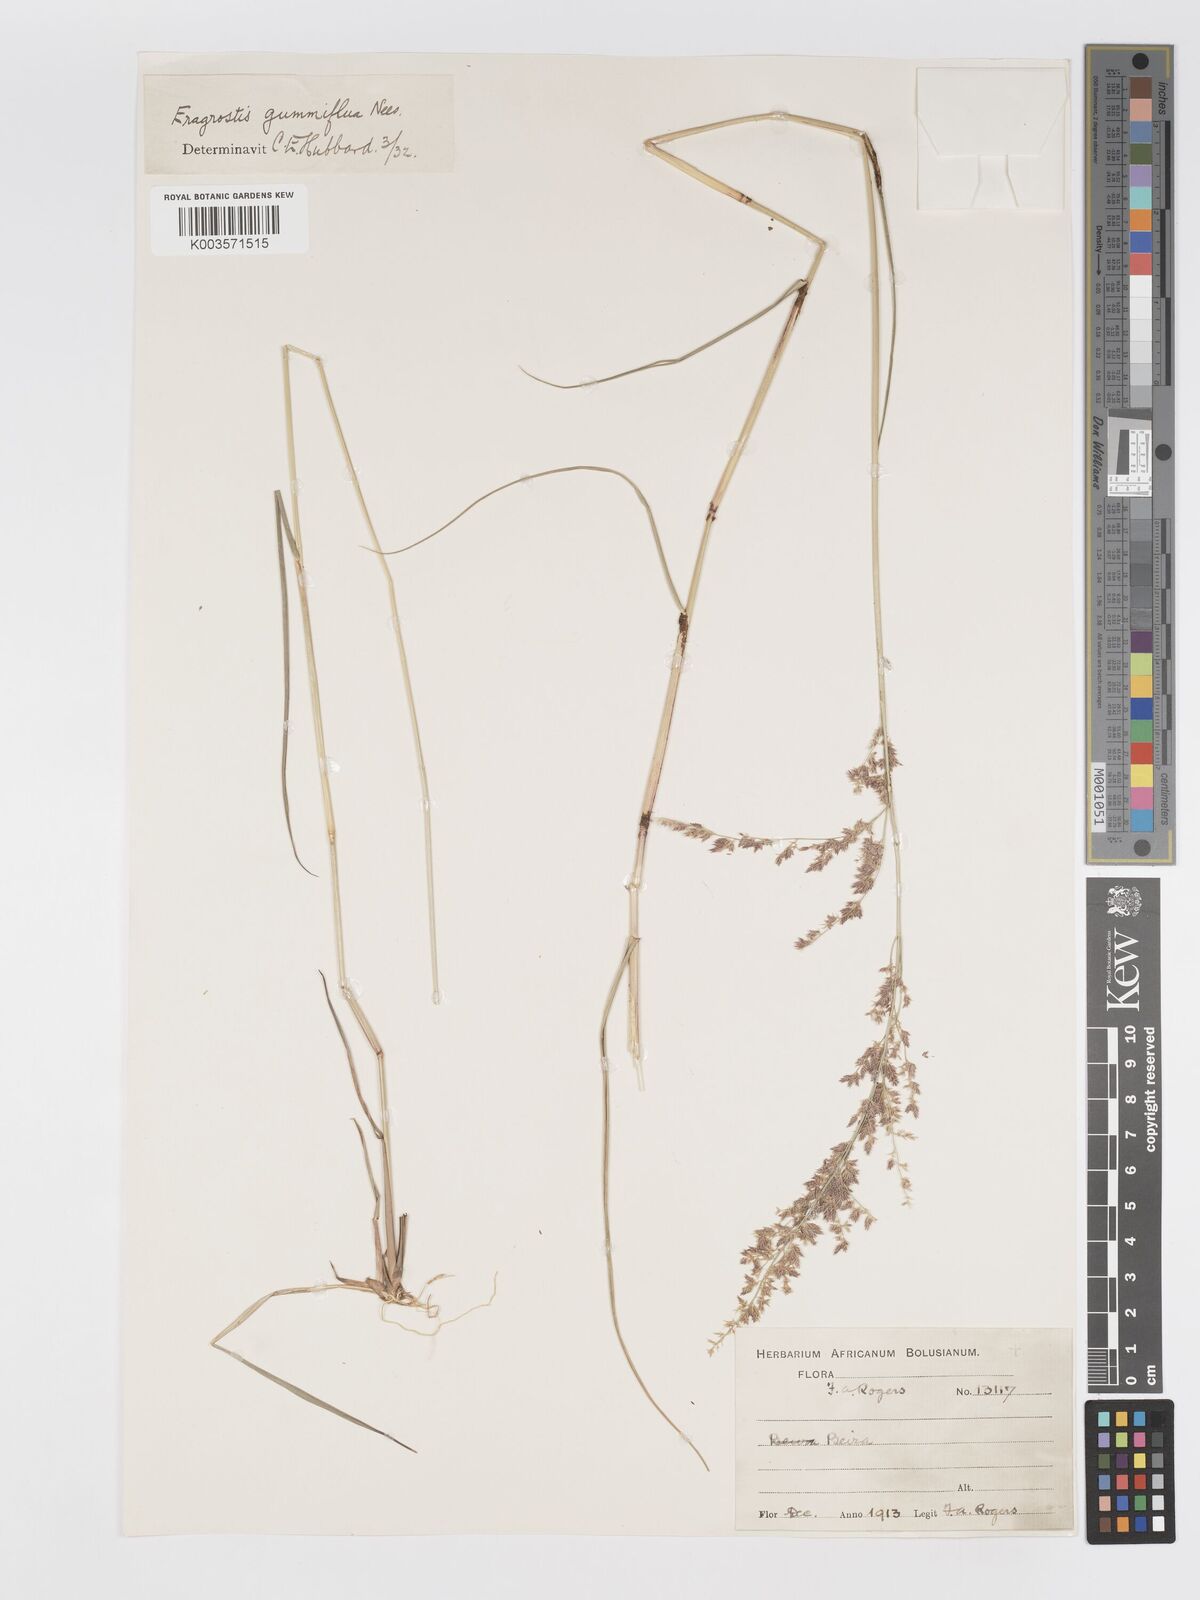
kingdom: Plantae
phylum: Tracheophyta
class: Liliopsida
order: Poales
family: Poaceae
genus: Eragrostis
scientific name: Eragrostis gummiflua
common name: Gum grass
